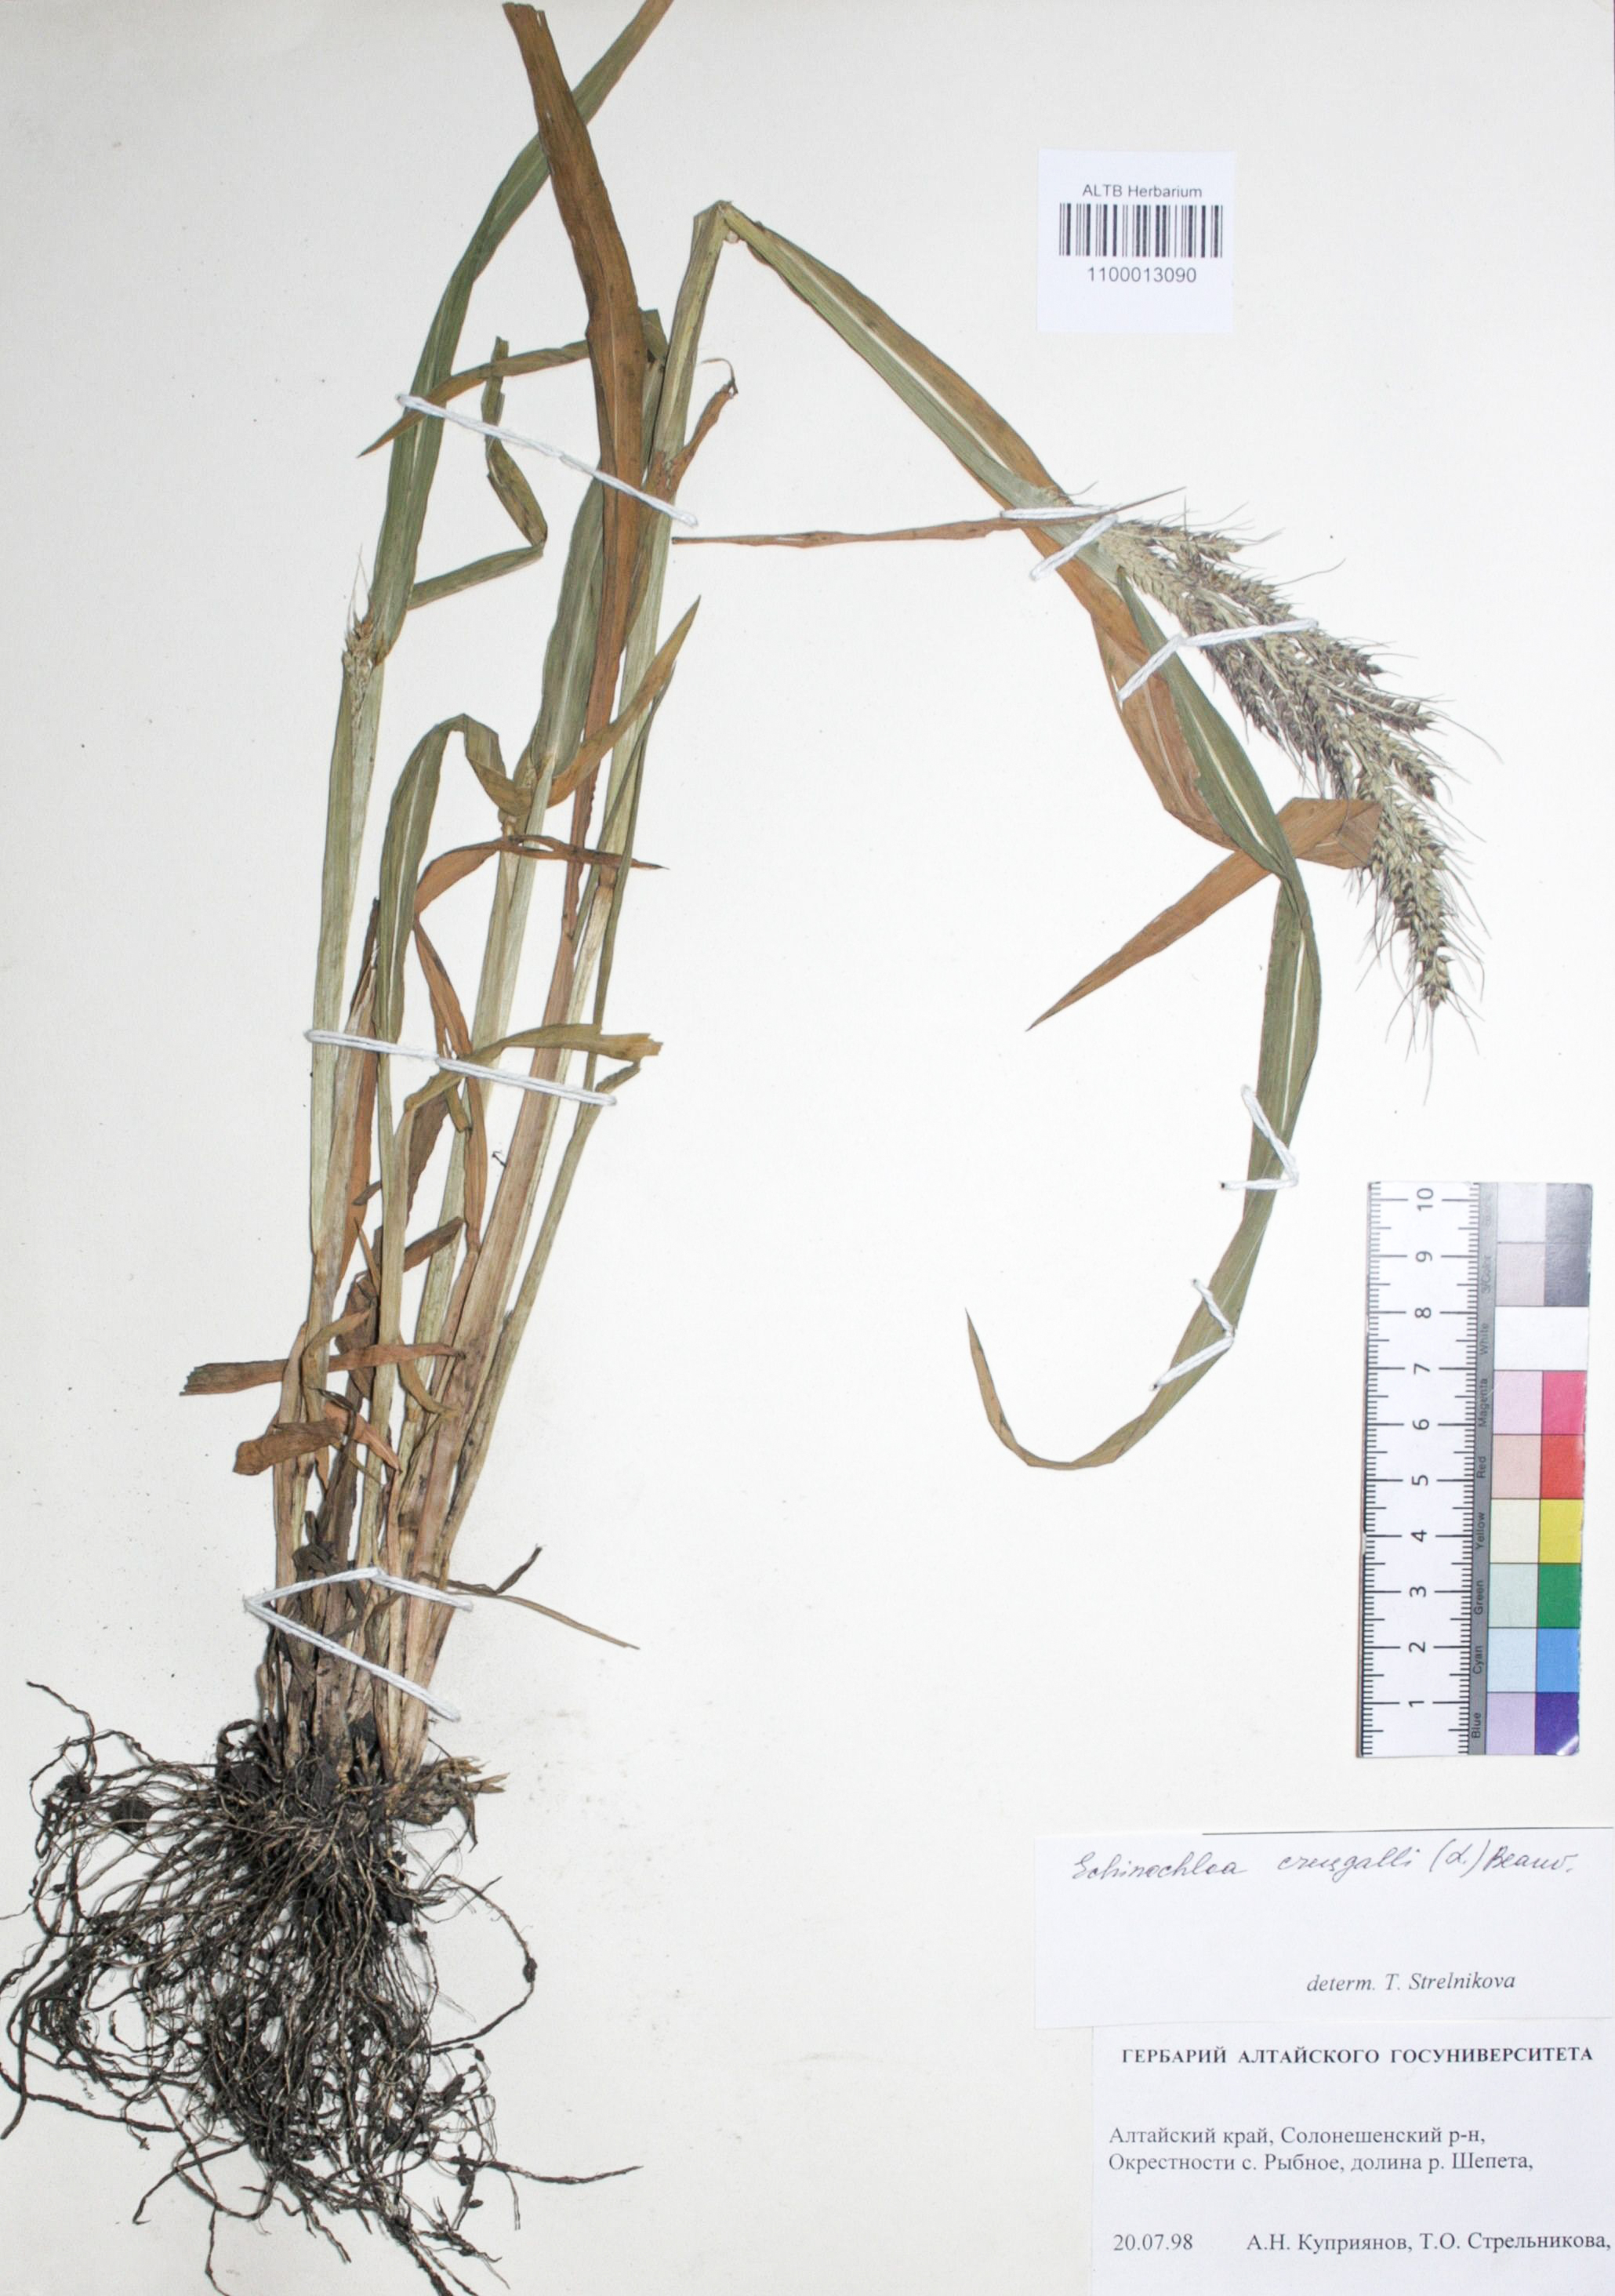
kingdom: Plantae
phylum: Tracheophyta
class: Liliopsida
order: Poales
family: Poaceae
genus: Echinochloa
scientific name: Echinochloa crus-galli
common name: Cockspur
